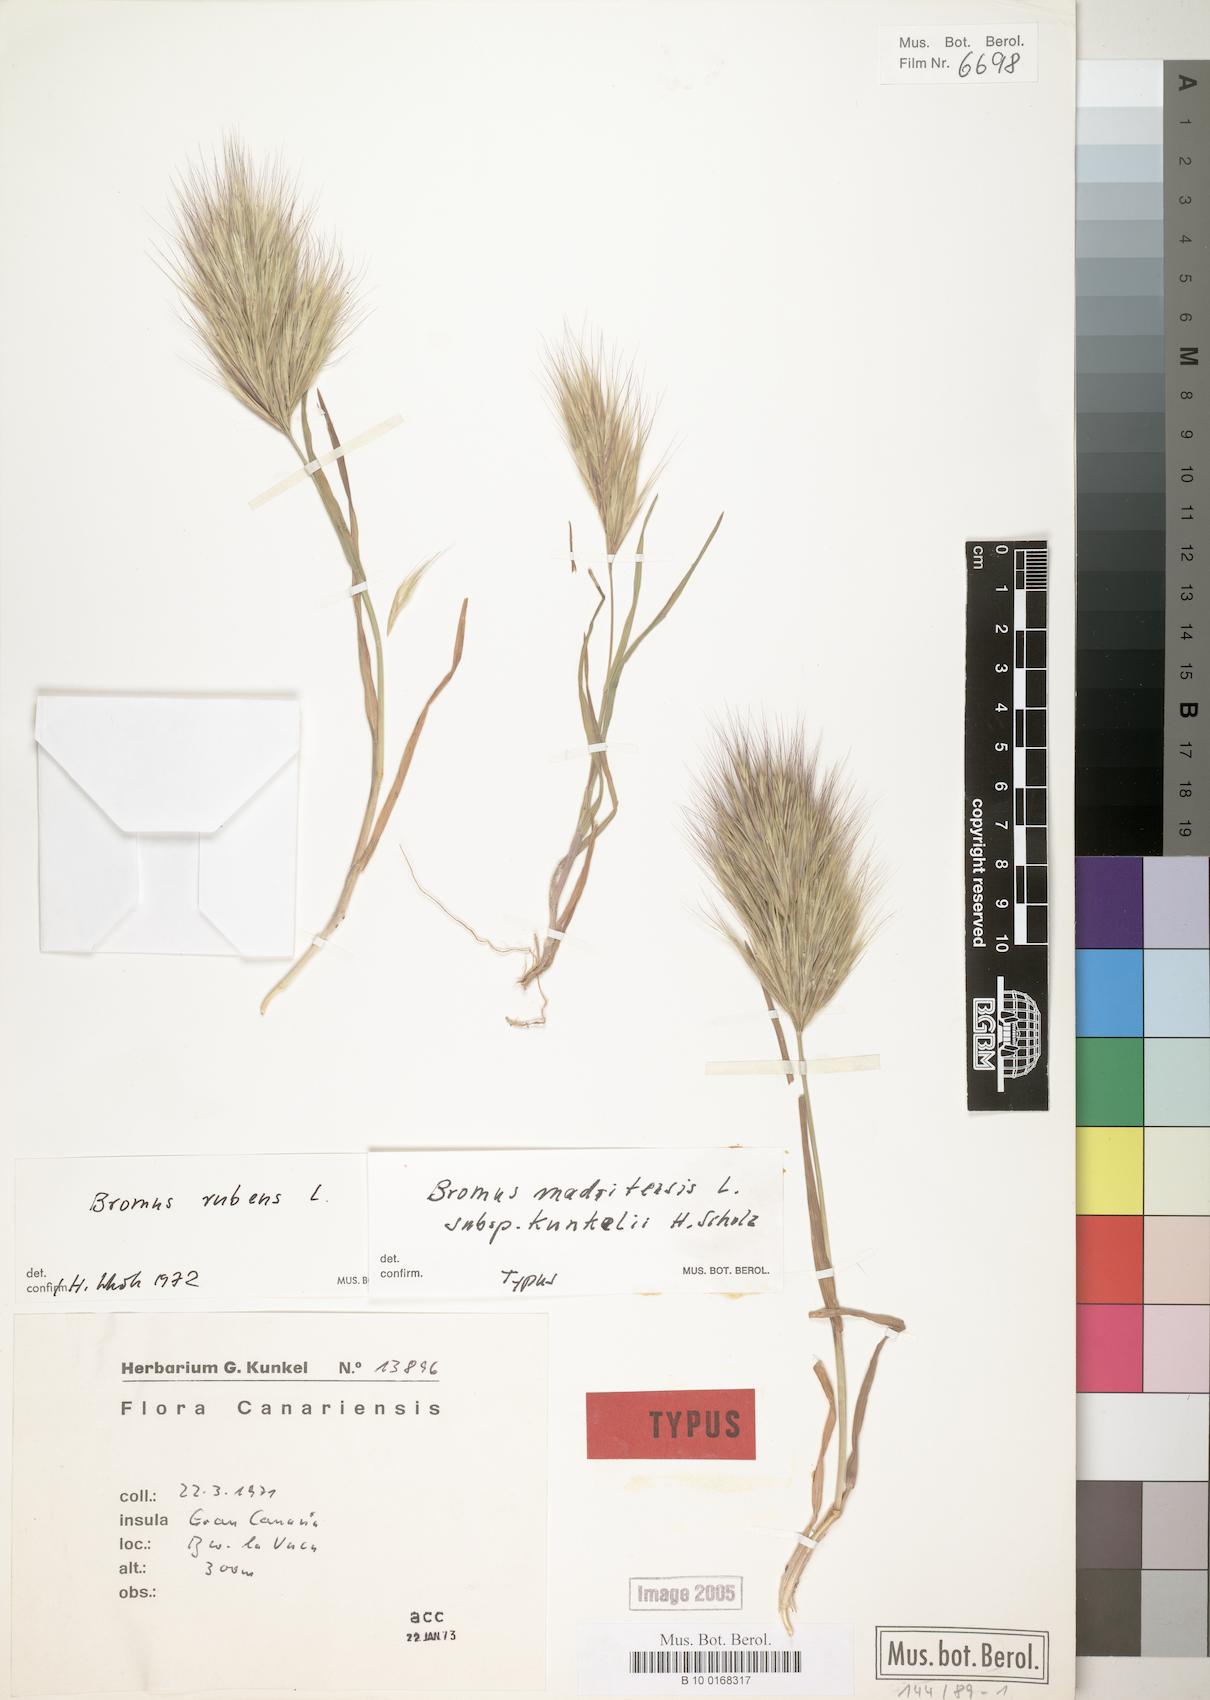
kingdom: Plantae
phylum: Tracheophyta
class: Liliopsida
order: Poales
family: Poaceae
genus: Bromus
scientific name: Bromus rubens
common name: Red brome
